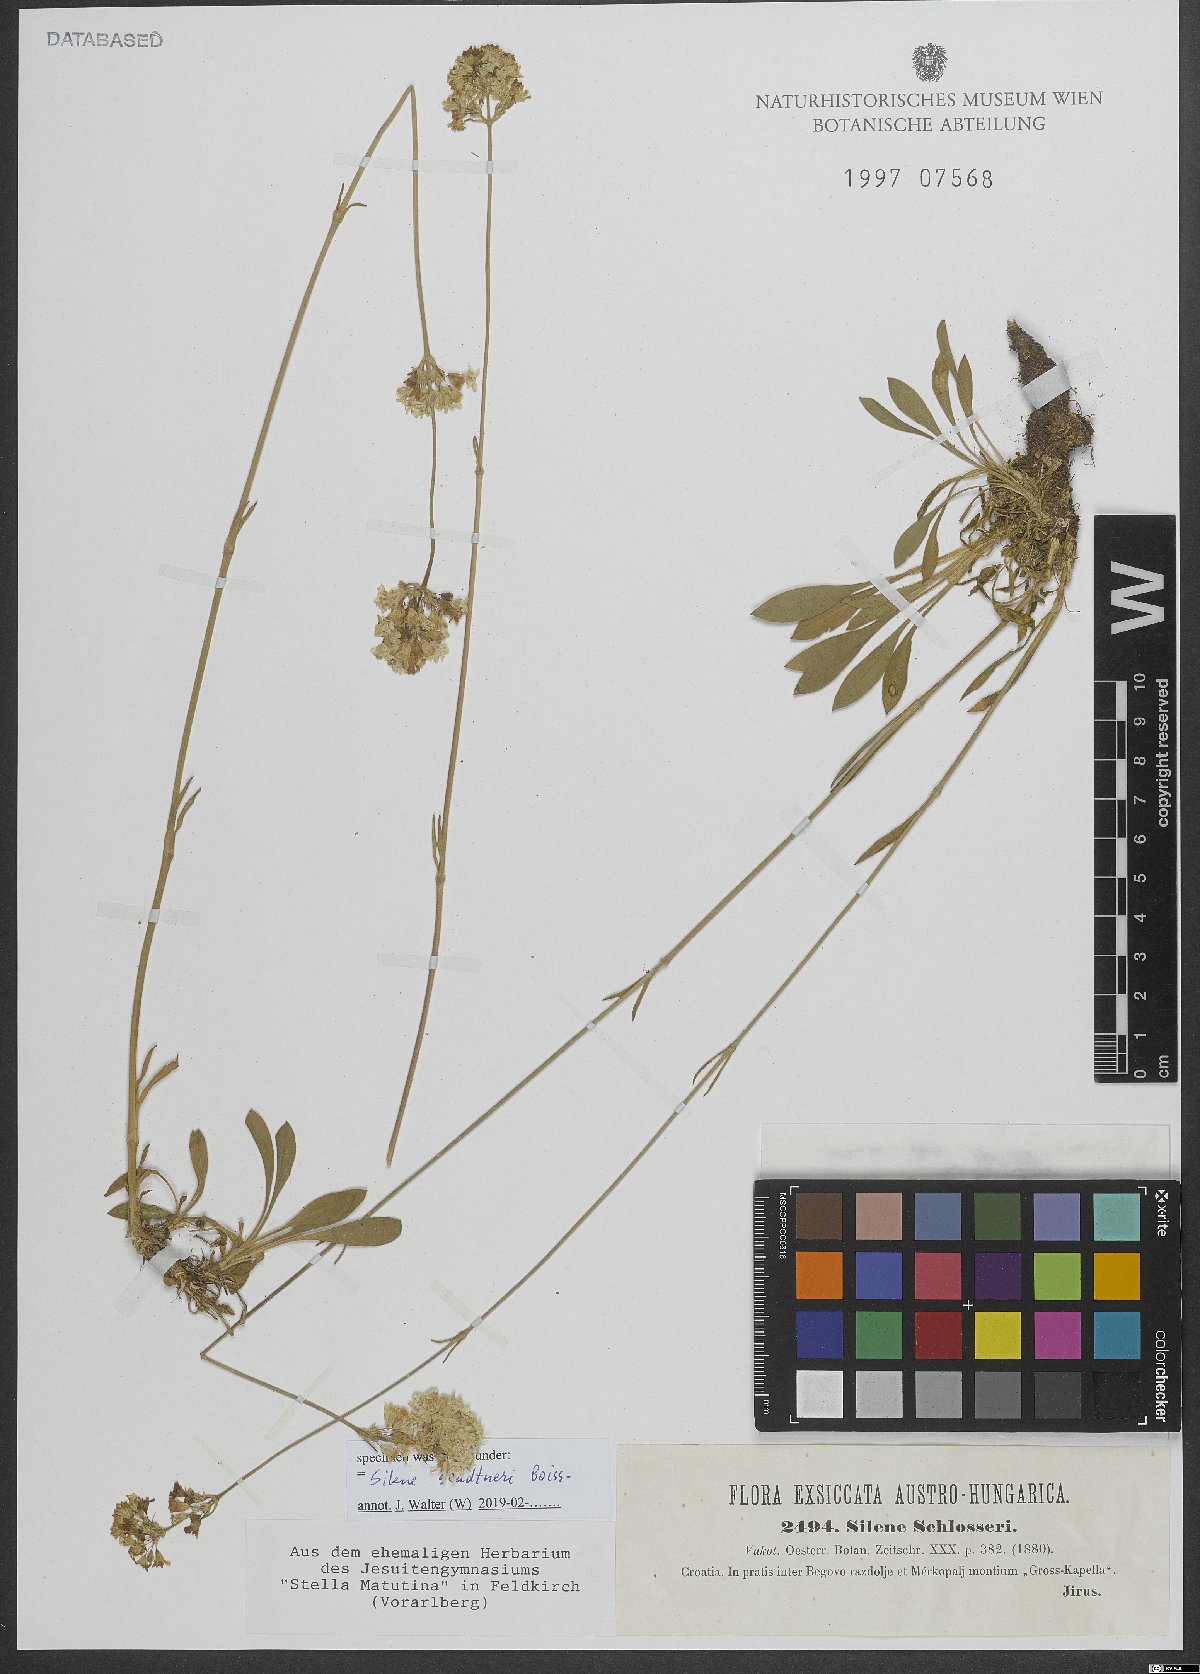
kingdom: Plantae
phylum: Tracheophyta
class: Magnoliopsida
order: Caryophyllales
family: Caryophyllaceae
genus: Silene
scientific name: Silene sendtneri
